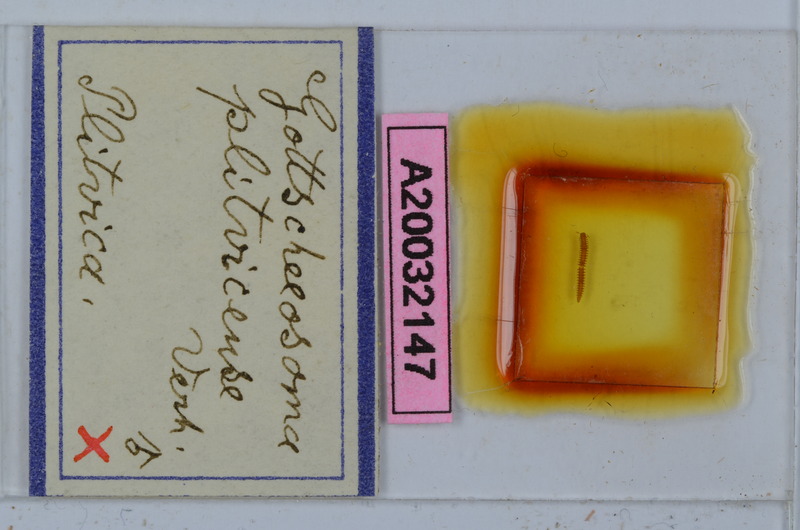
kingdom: Animalia
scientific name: Animalia
